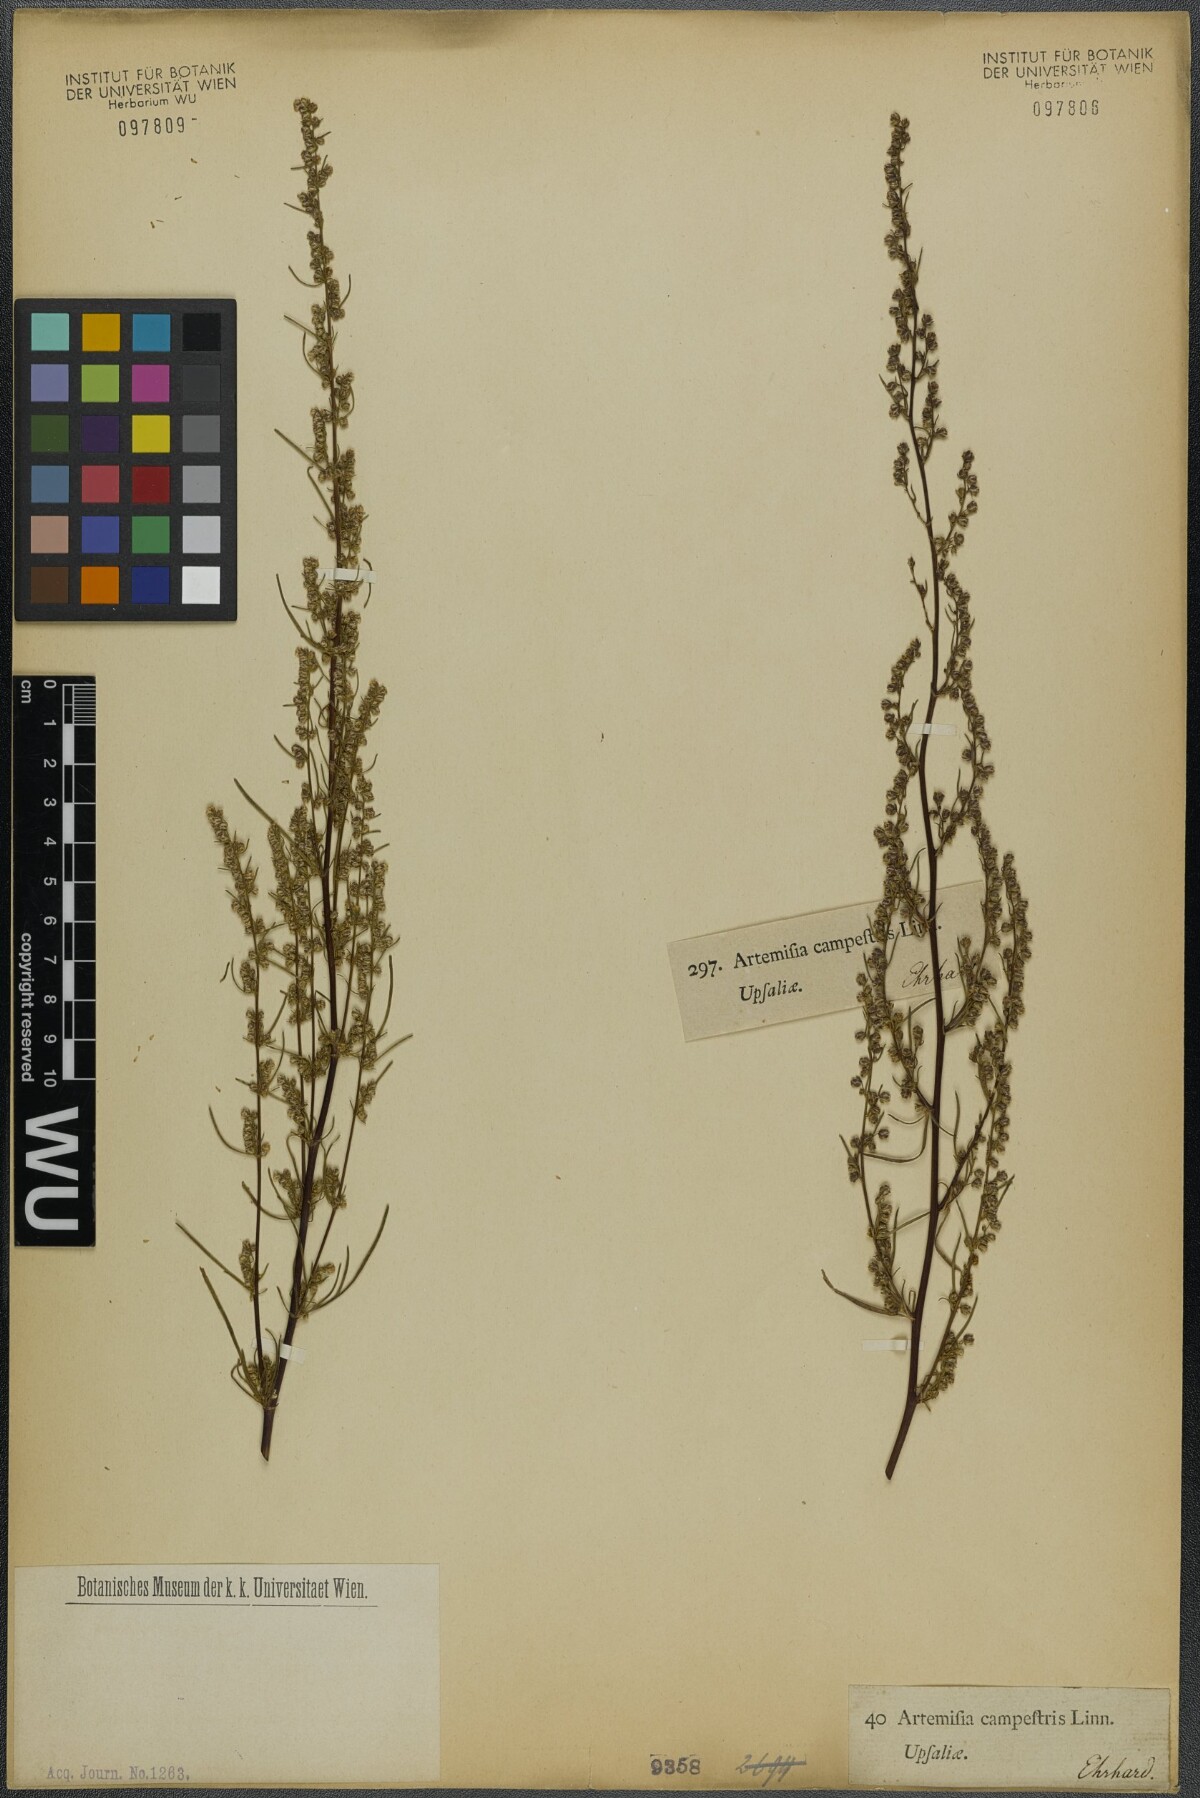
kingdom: Plantae
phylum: Tracheophyta
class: Magnoliopsida
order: Asterales
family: Asteraceae
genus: Artemisia
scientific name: Artemisia campestris
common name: Field wormwood
